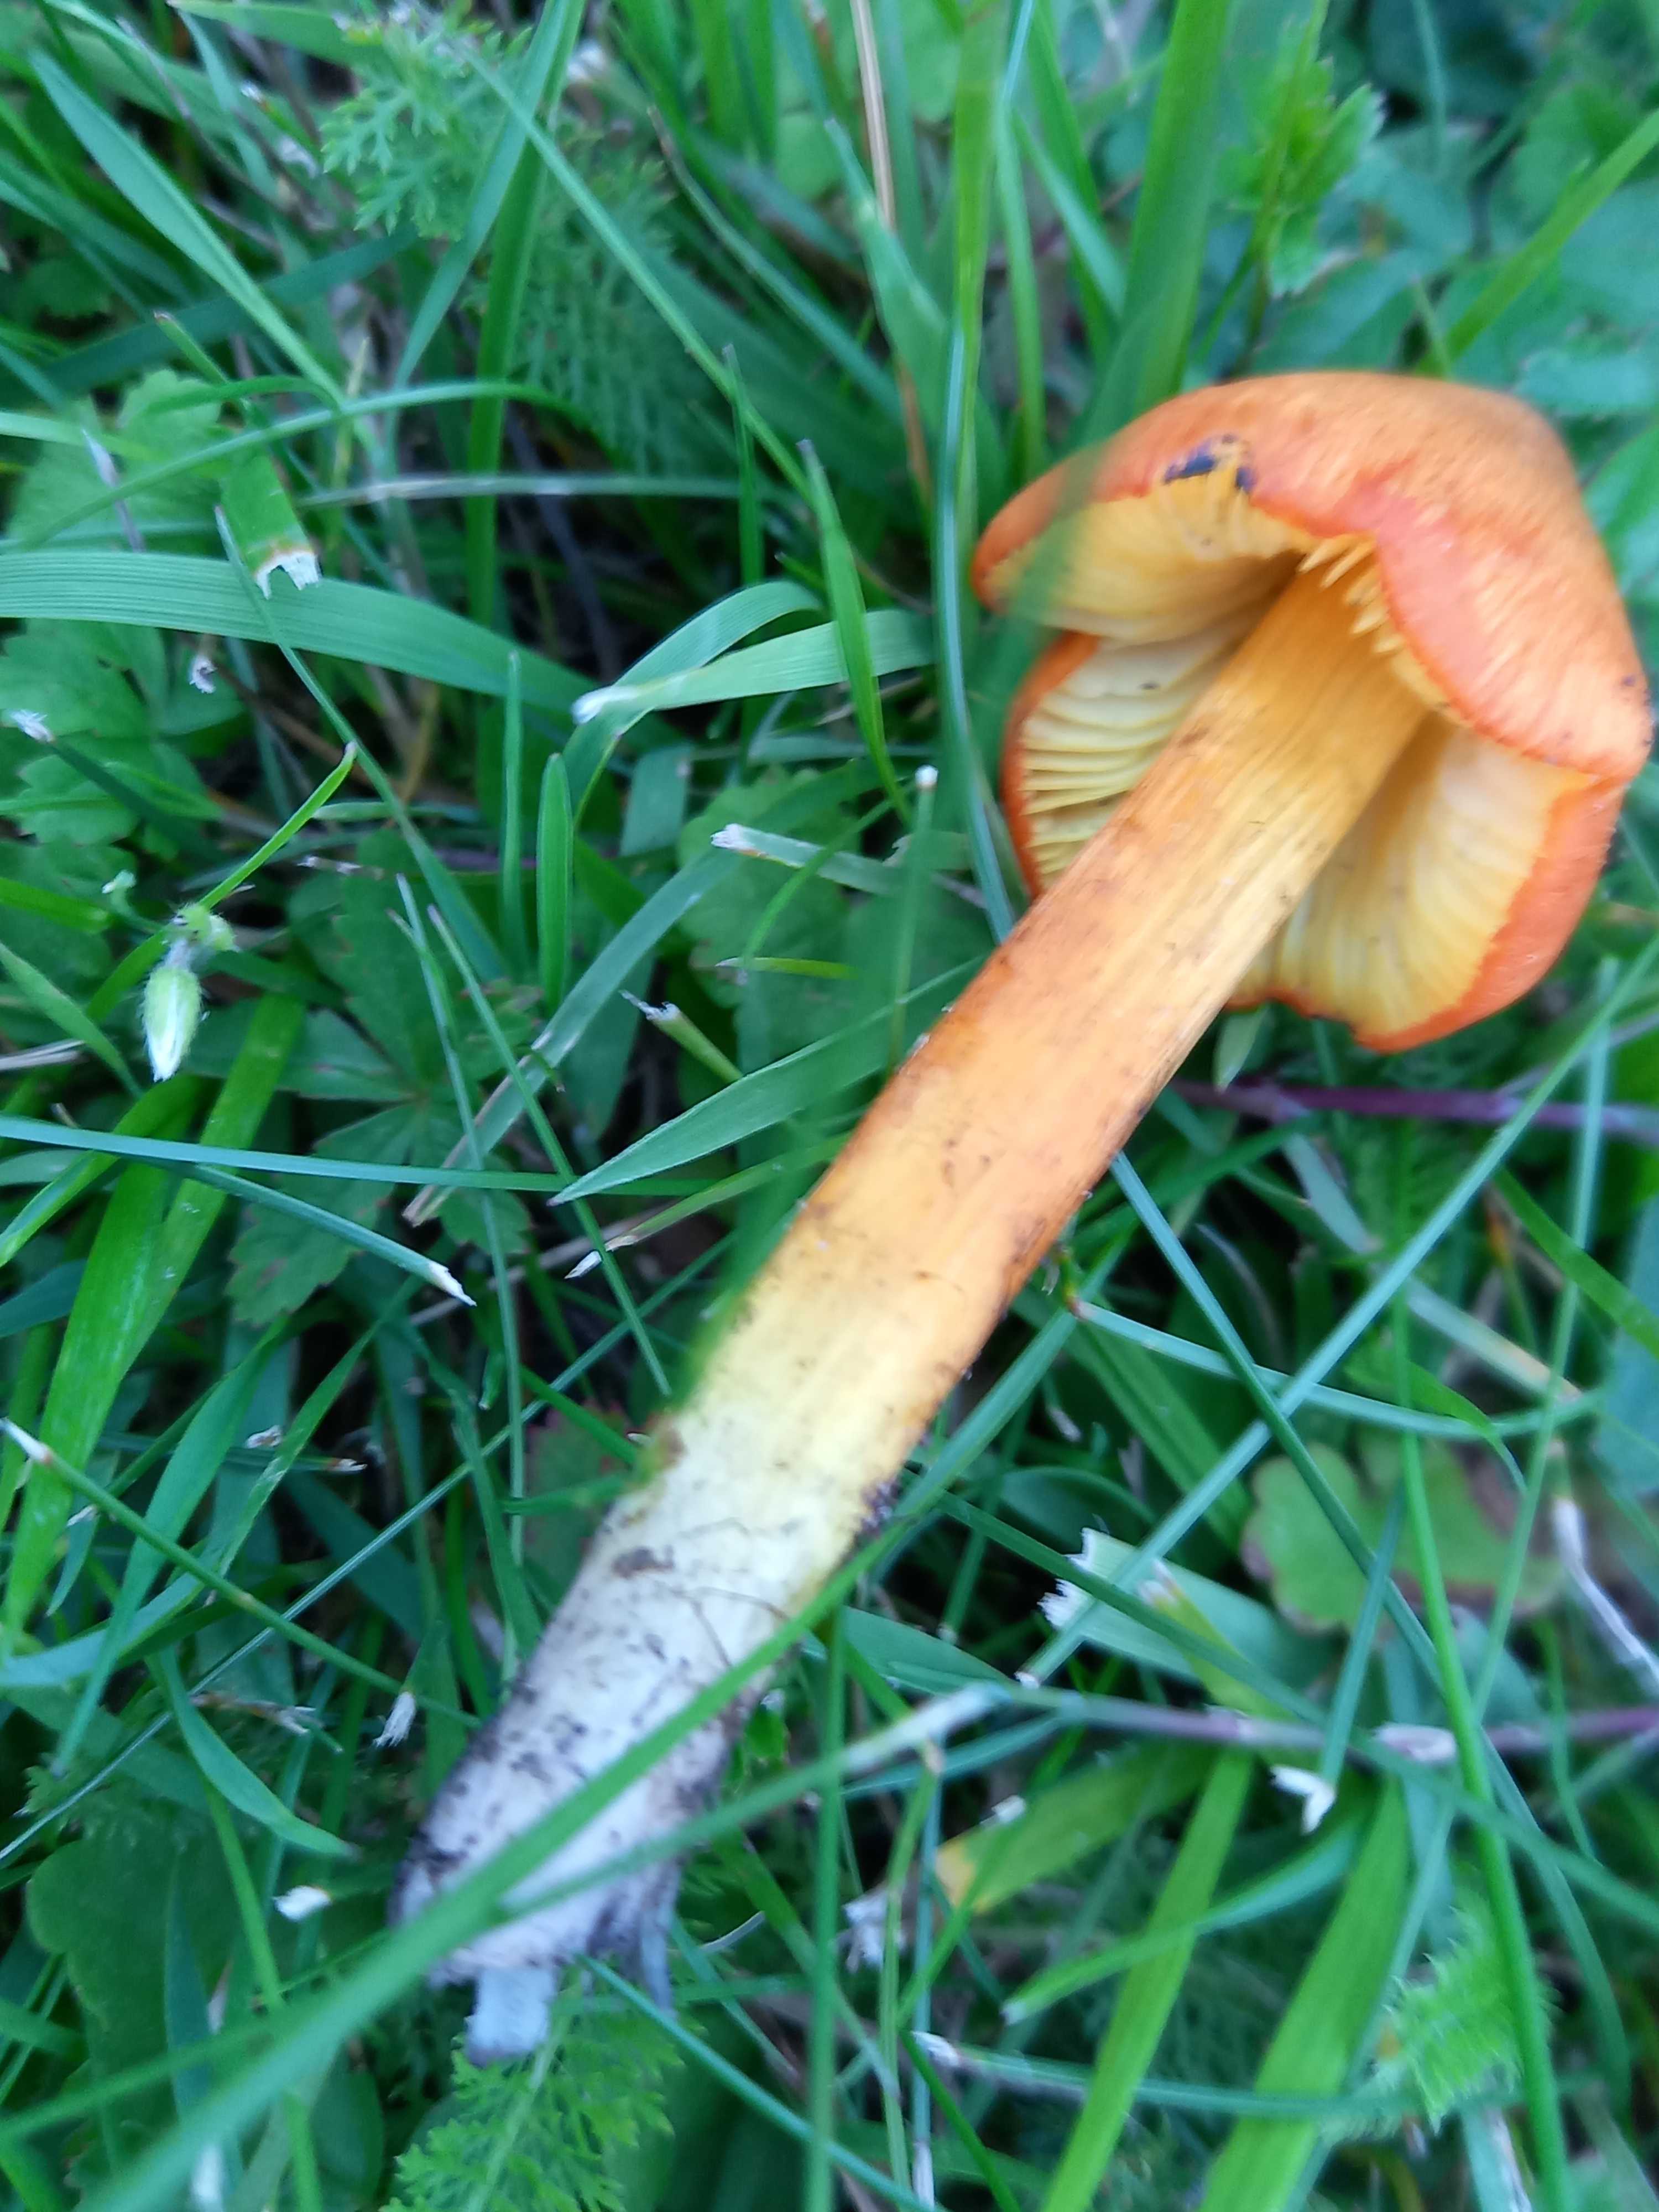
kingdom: Fungi
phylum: Basidiomycota
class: Agaricomycetes
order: Agaricales
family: Hygrophoraceae
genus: Hygrocybe
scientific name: Hygrocybe conica
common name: kegle-vokshat
